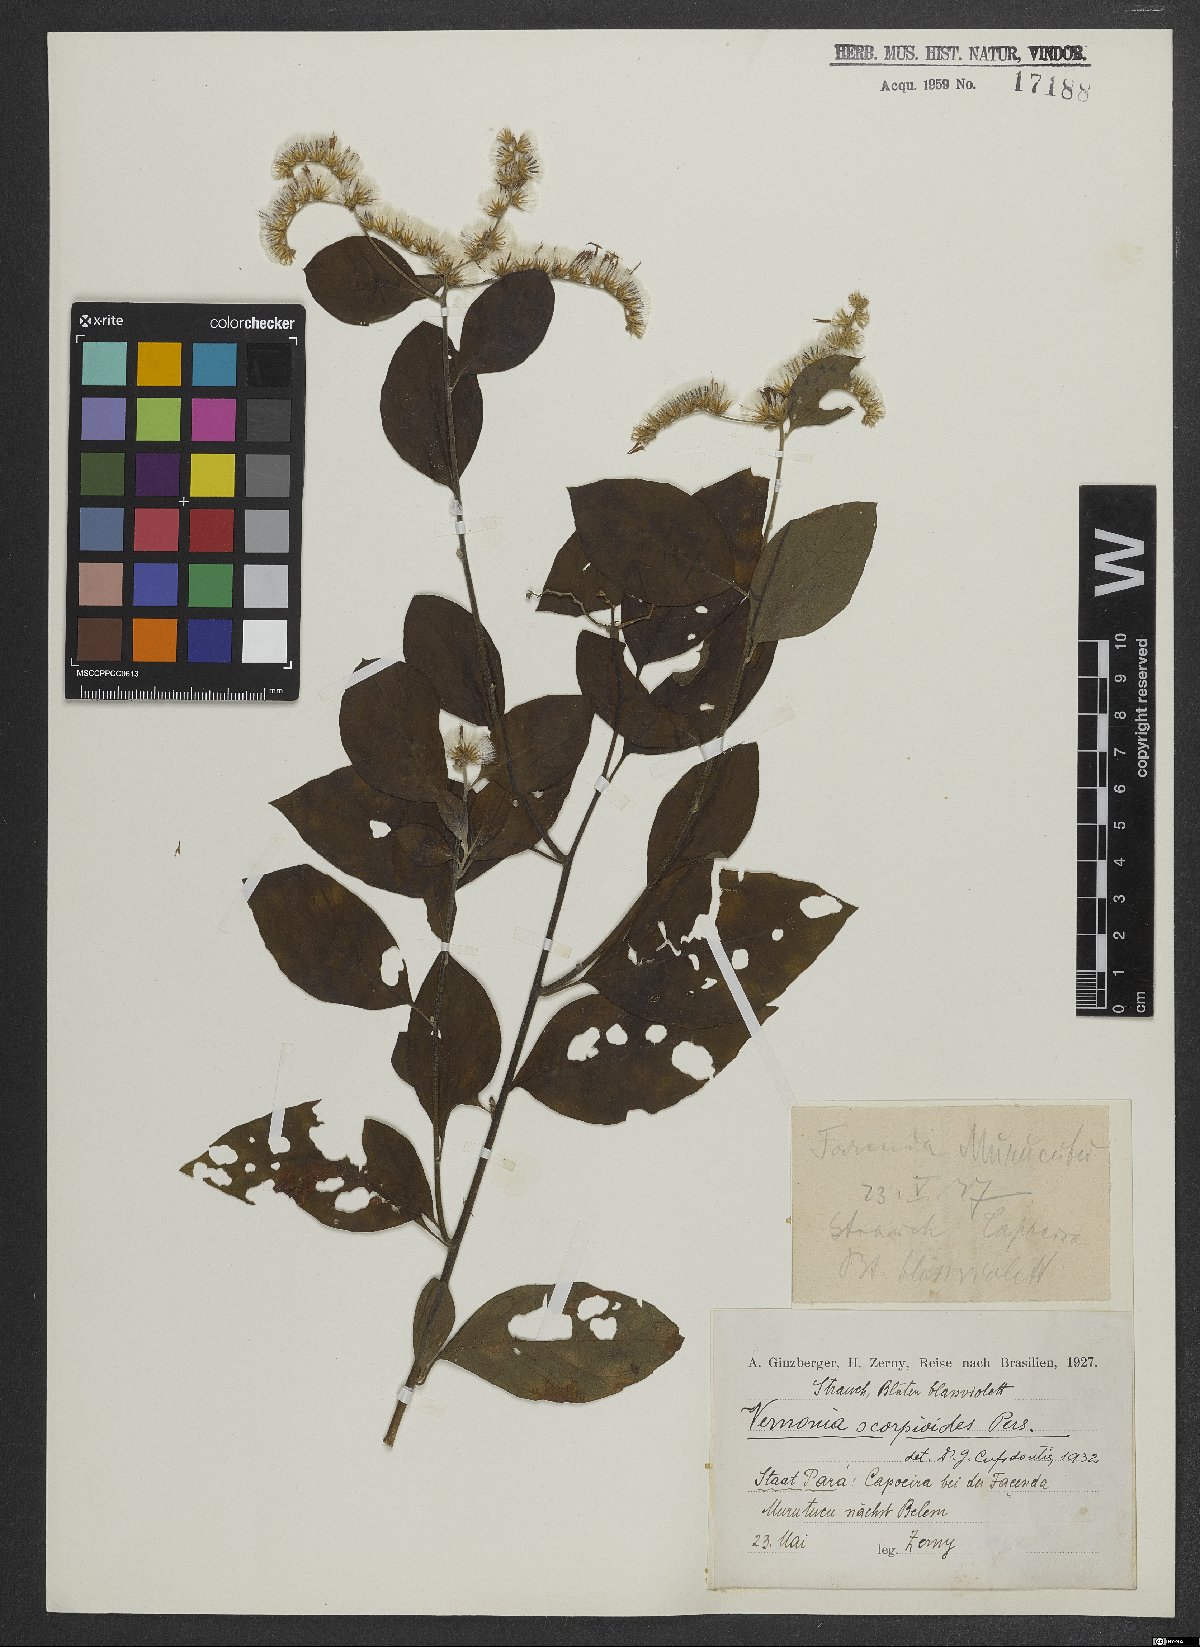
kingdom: Plantae
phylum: Tracheophyta
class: Magnoliopsida
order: Asterales
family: Asteraceae
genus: Cyrtocymura
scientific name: Cyrtocymura scorpioides
